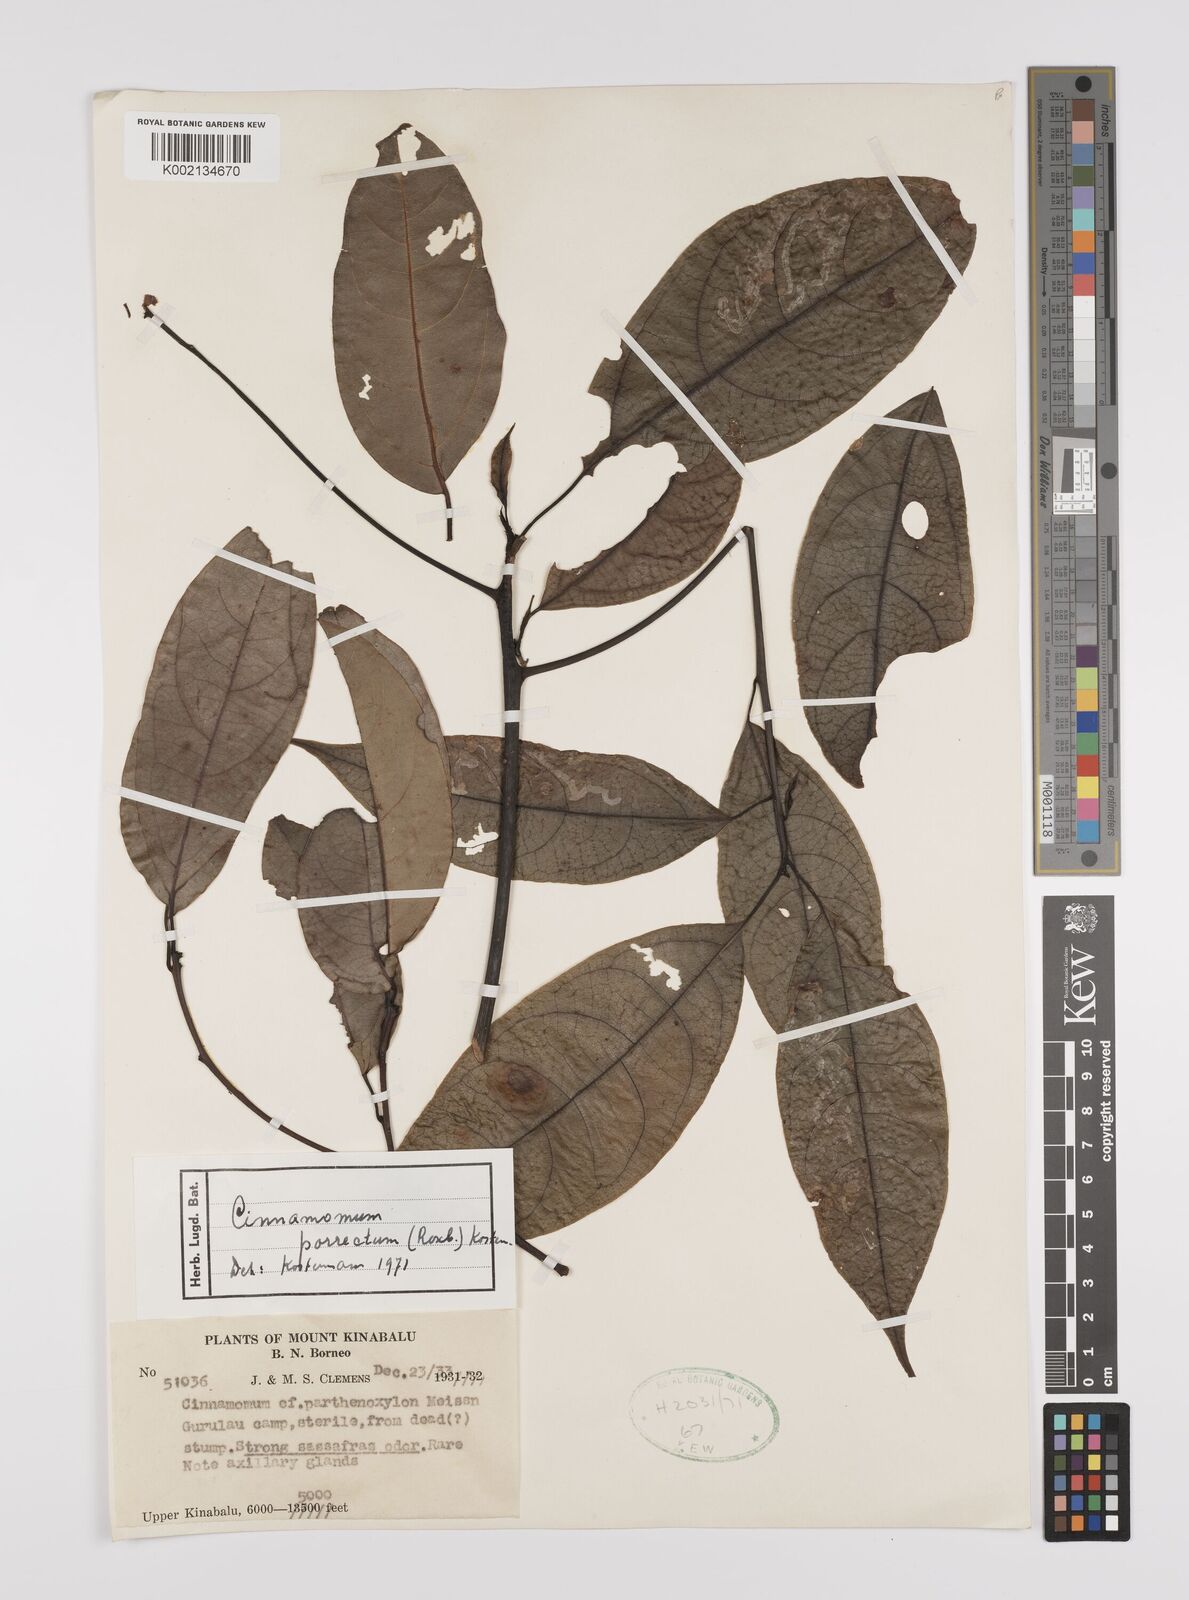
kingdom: Plantae
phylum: Tracheophyta
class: Magnoliopsida
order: Laurales
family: Lauraceae
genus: Cinnamomum
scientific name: Cinnamomum parthenoxylon
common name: Martaban camphor wood
